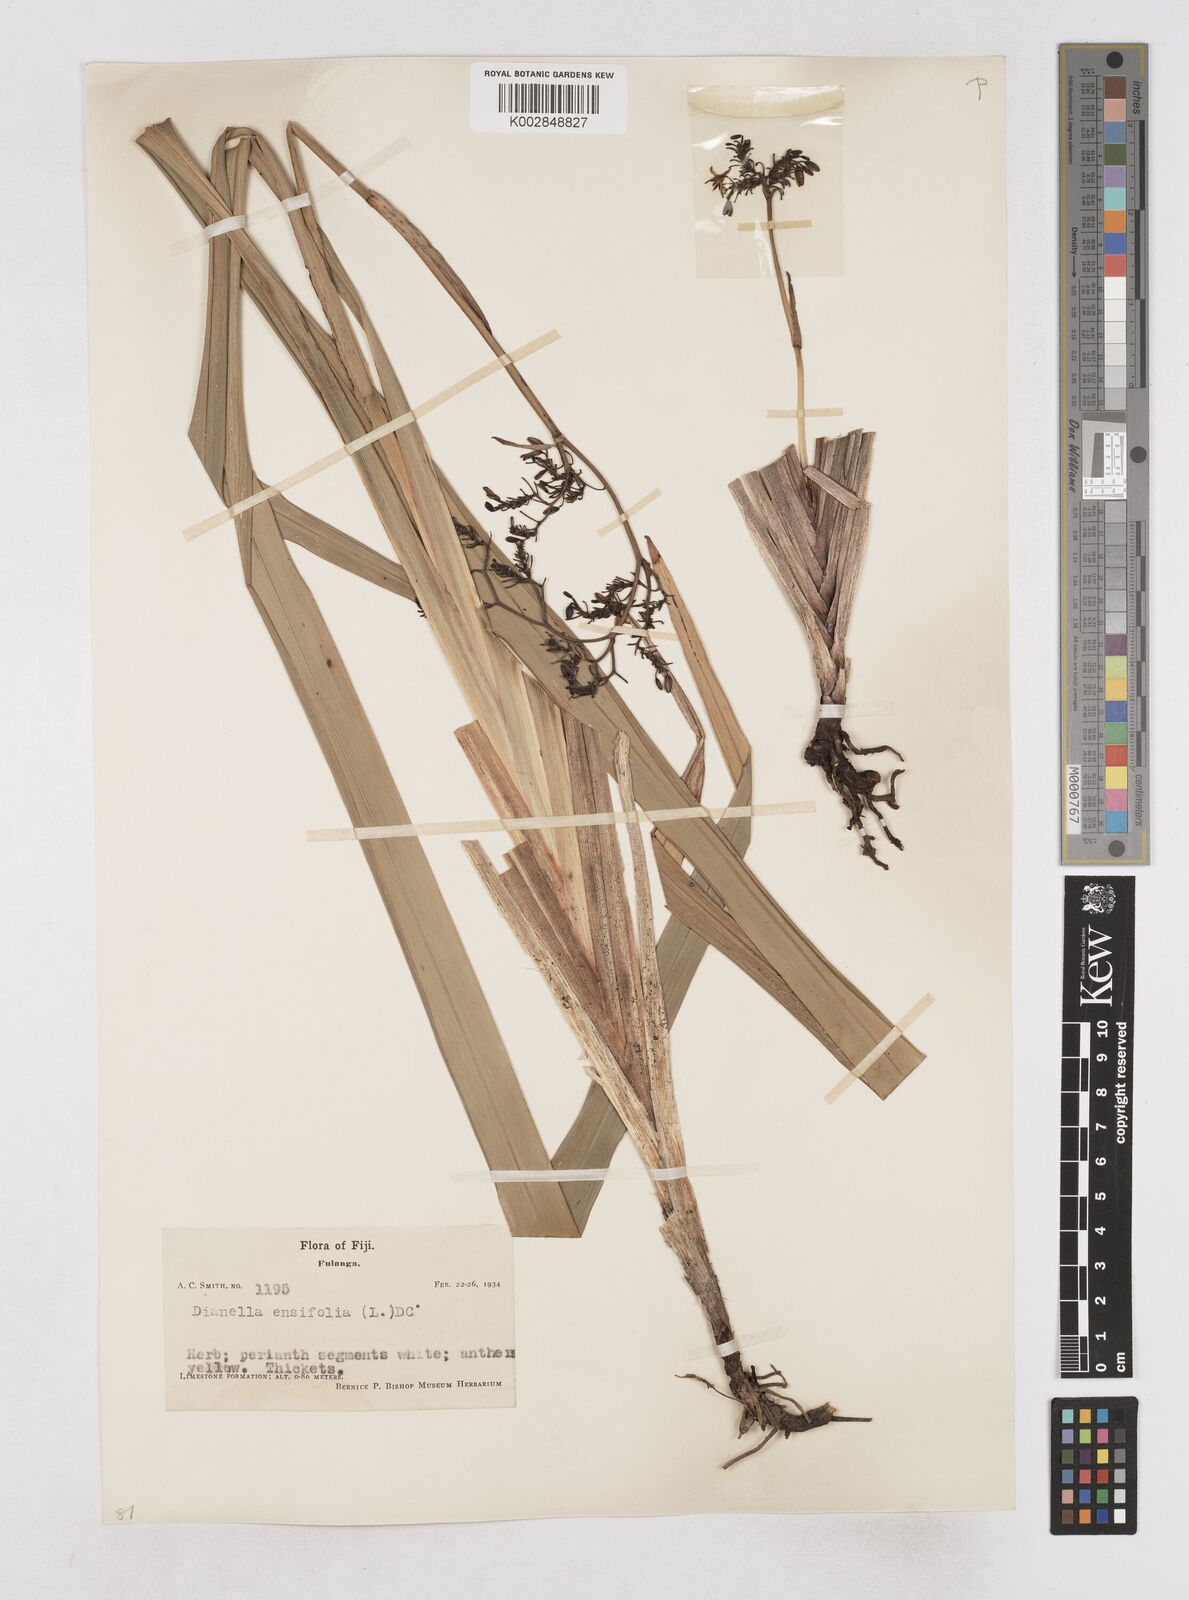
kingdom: Plantae
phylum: Tracheophyta
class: Liliopsida
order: Asparagales
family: Asphodelaceae
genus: Dianella
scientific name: Dianella ensifolia
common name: New zealand lilyplant
